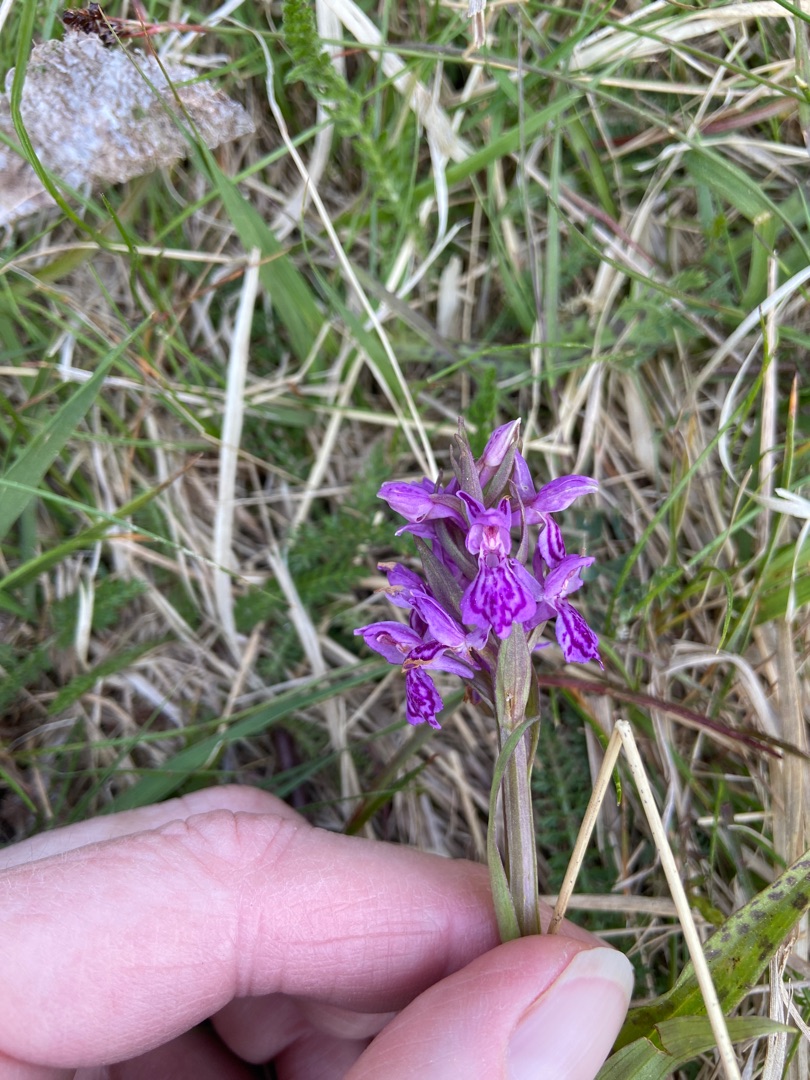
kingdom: Plantae
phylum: Tracheophyta
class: Liliopsida
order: Asparagales
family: Orchidaceae
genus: Dactylorhiza
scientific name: Dactylorhiza majalis
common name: Maj-gøgeurt
